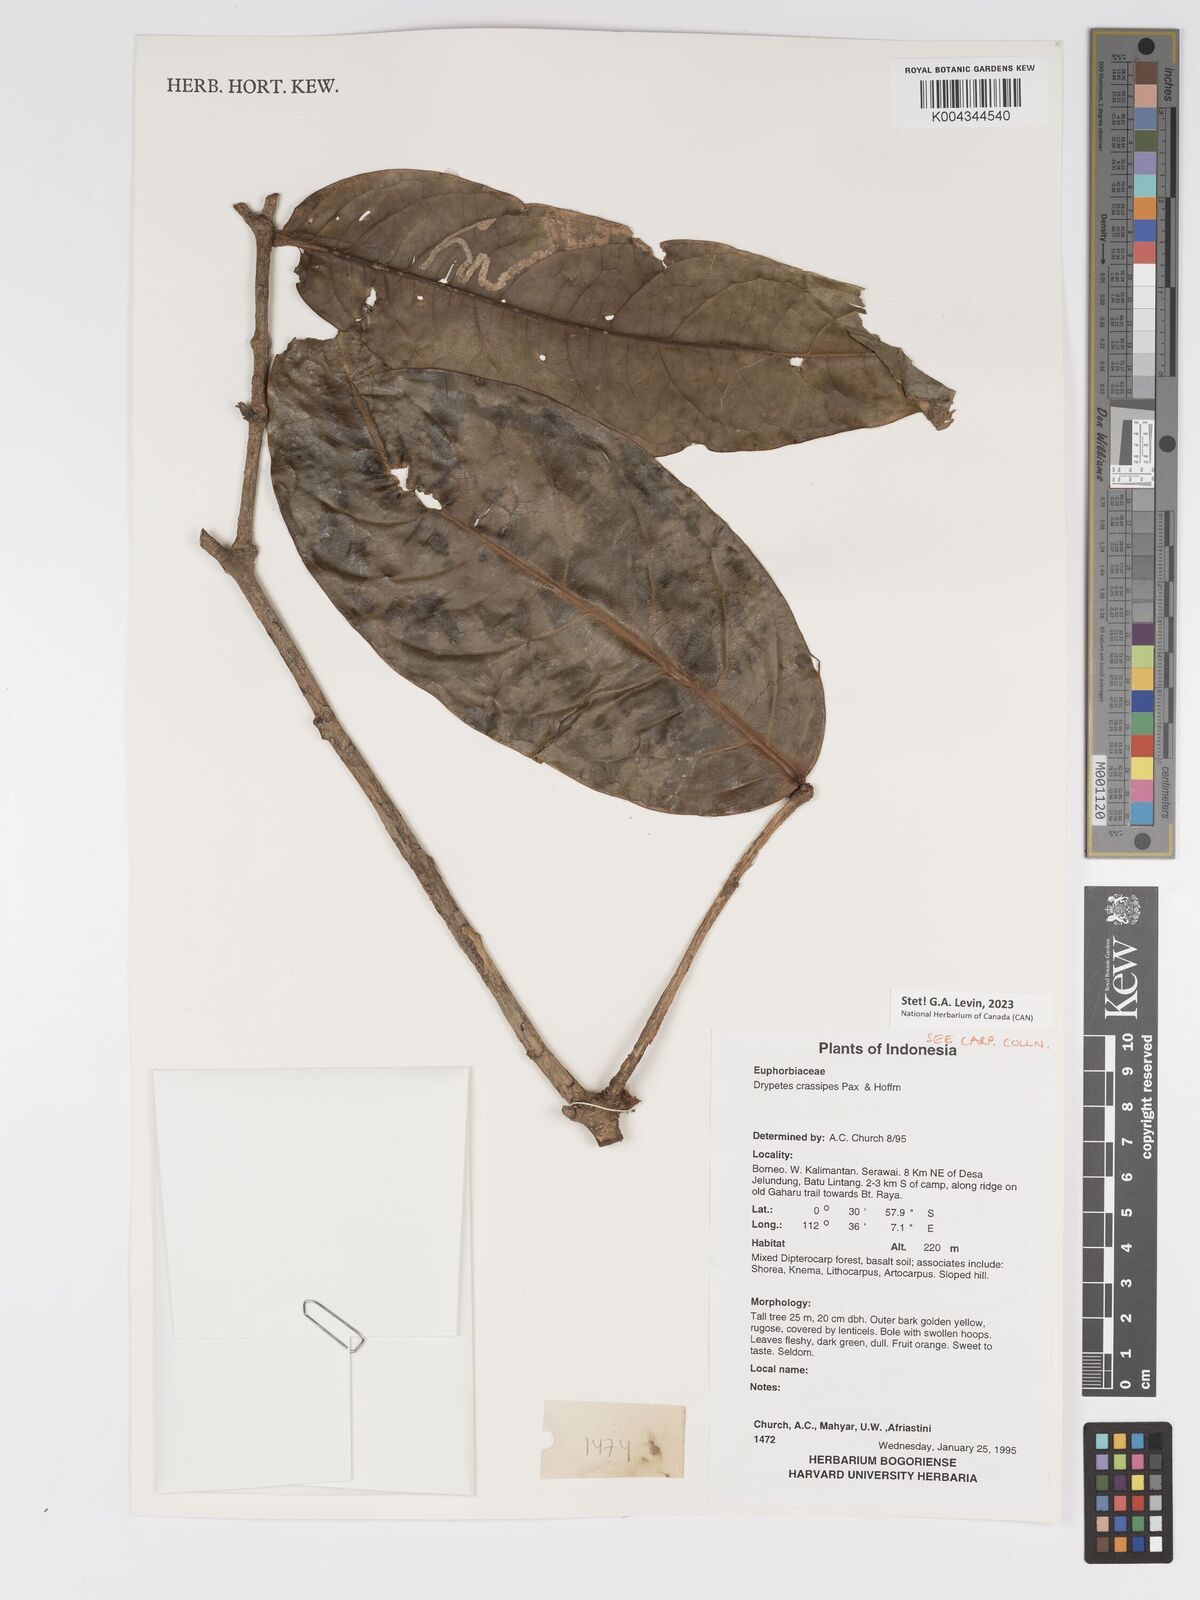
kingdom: Plantae
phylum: Tracheophyta
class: Magnoliopsida
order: Malpighiales
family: Putranjivaceae
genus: Drypetes
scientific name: Drypetes crassipes
